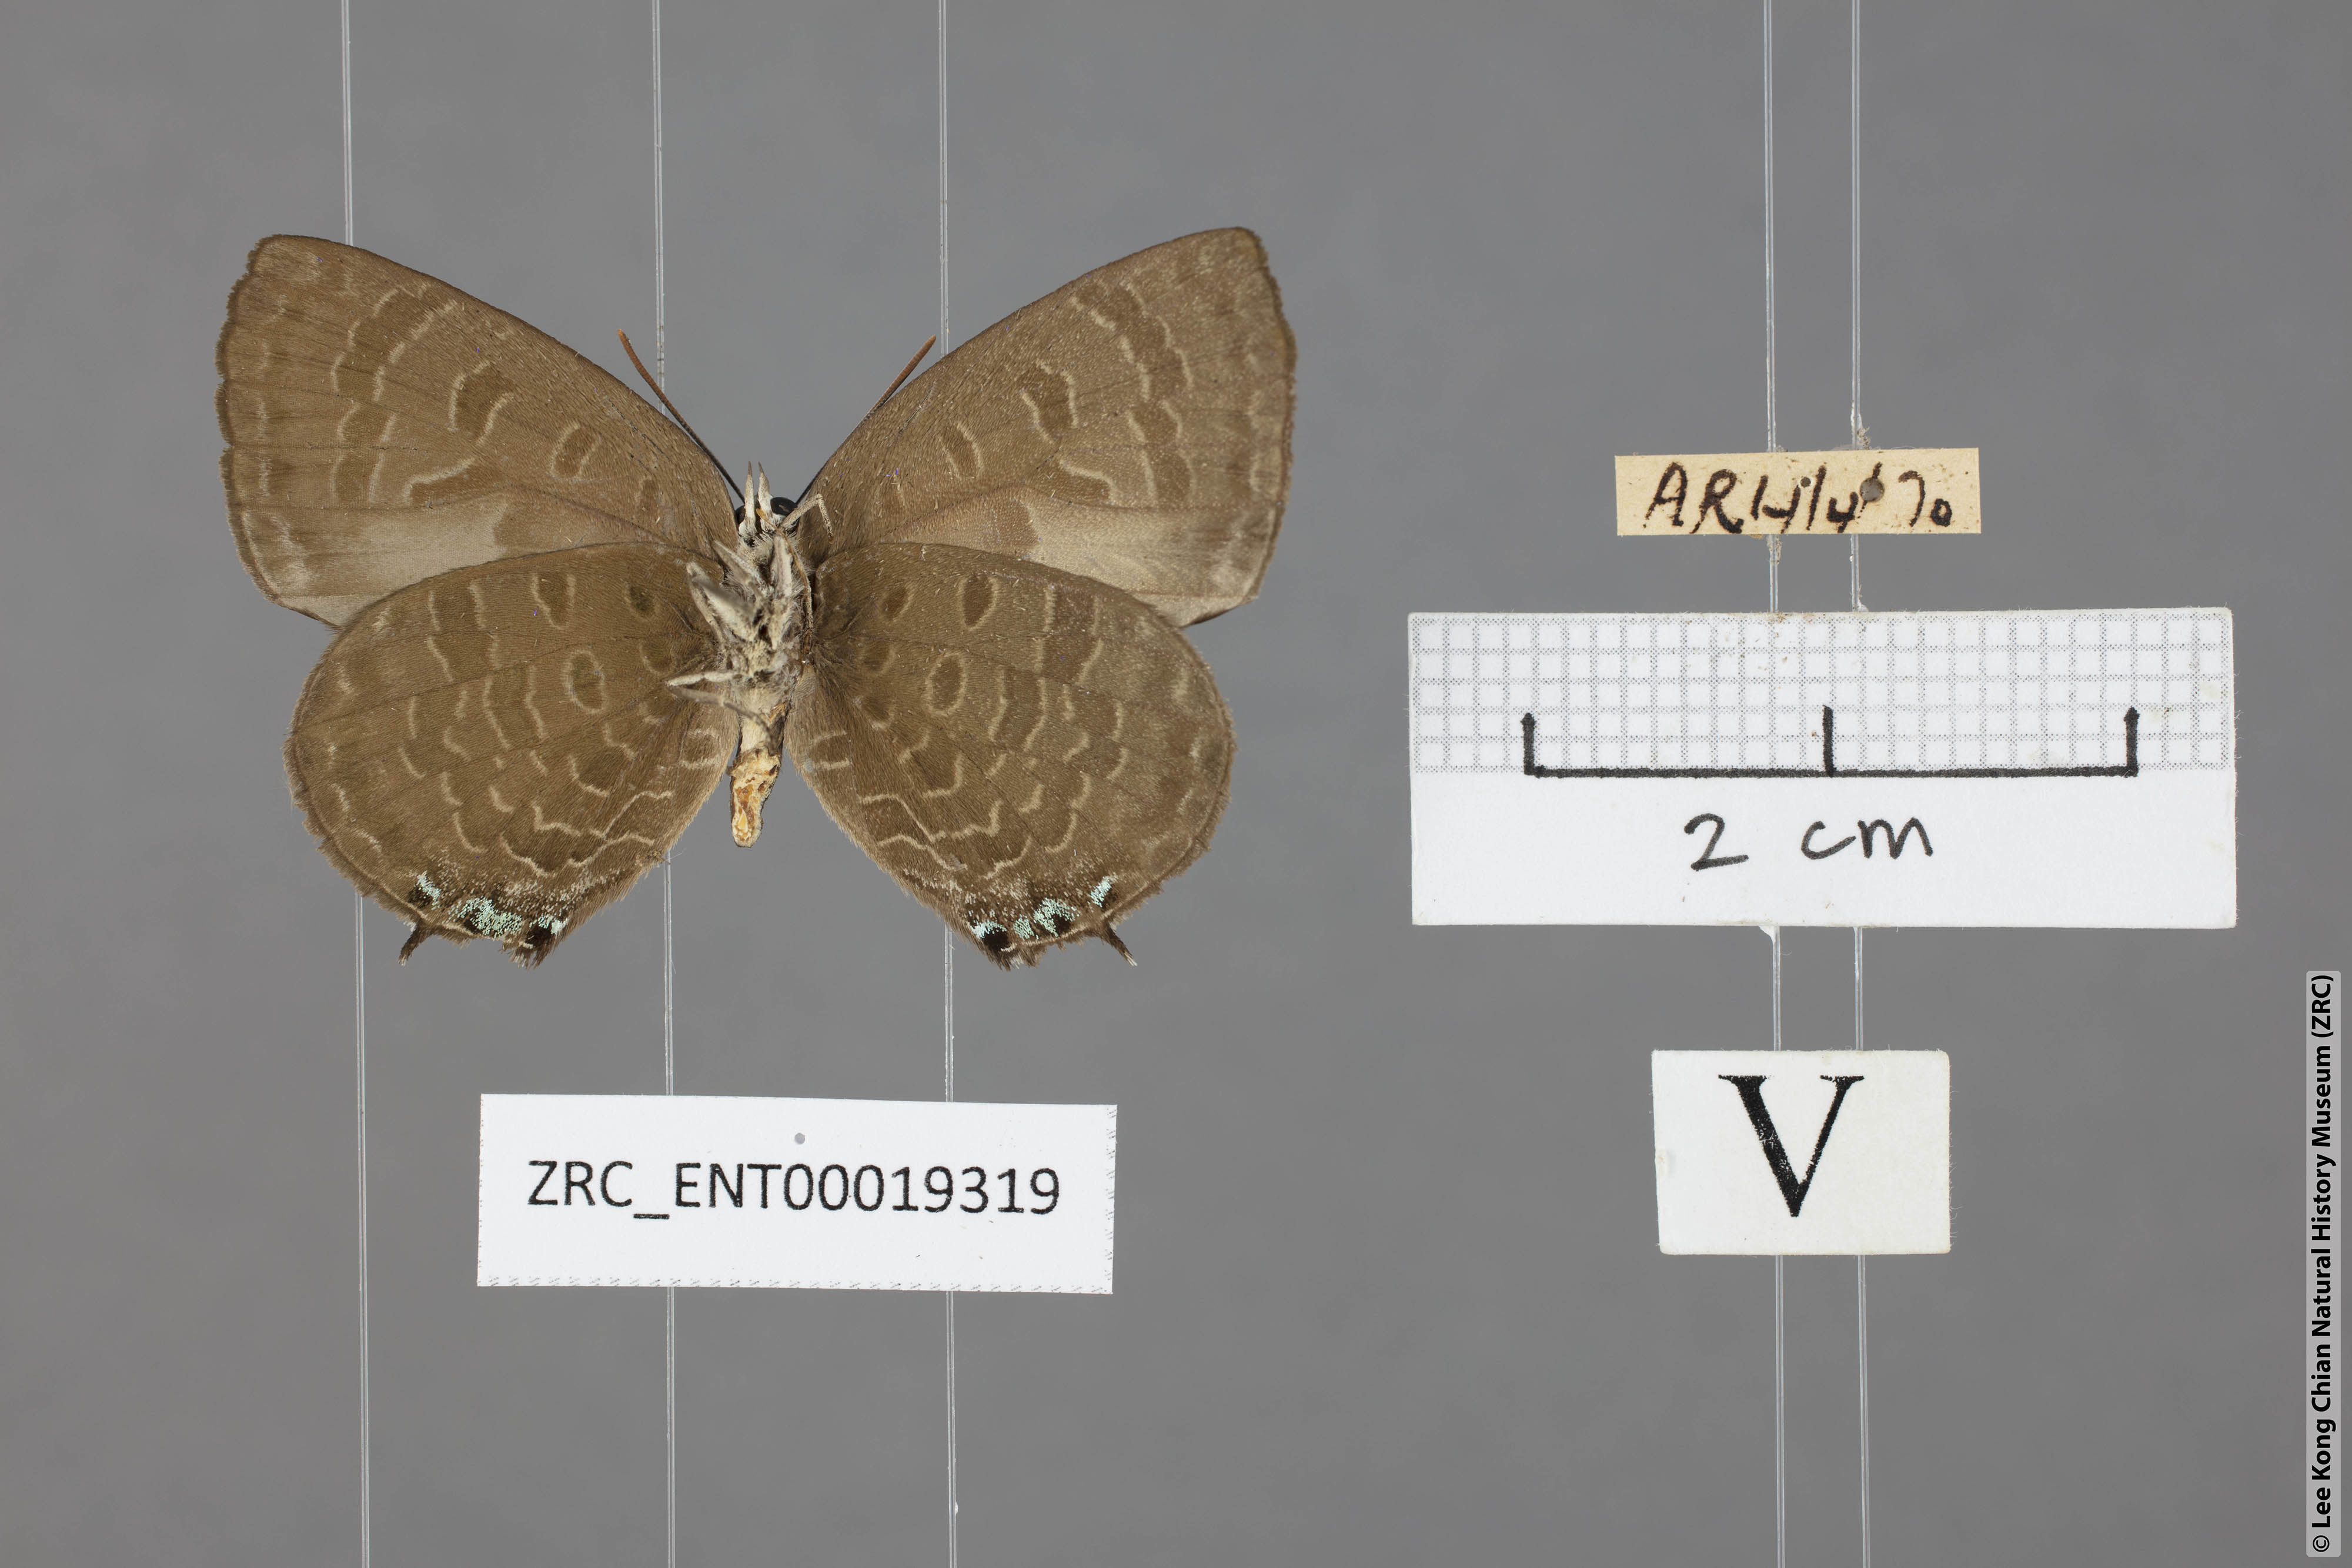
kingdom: Animalia
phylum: Arthropoda
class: Insecta
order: Lepidoptera
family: Lycaenidae
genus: Arhopala
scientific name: Arhopala buddha
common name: Buddha oakblue
